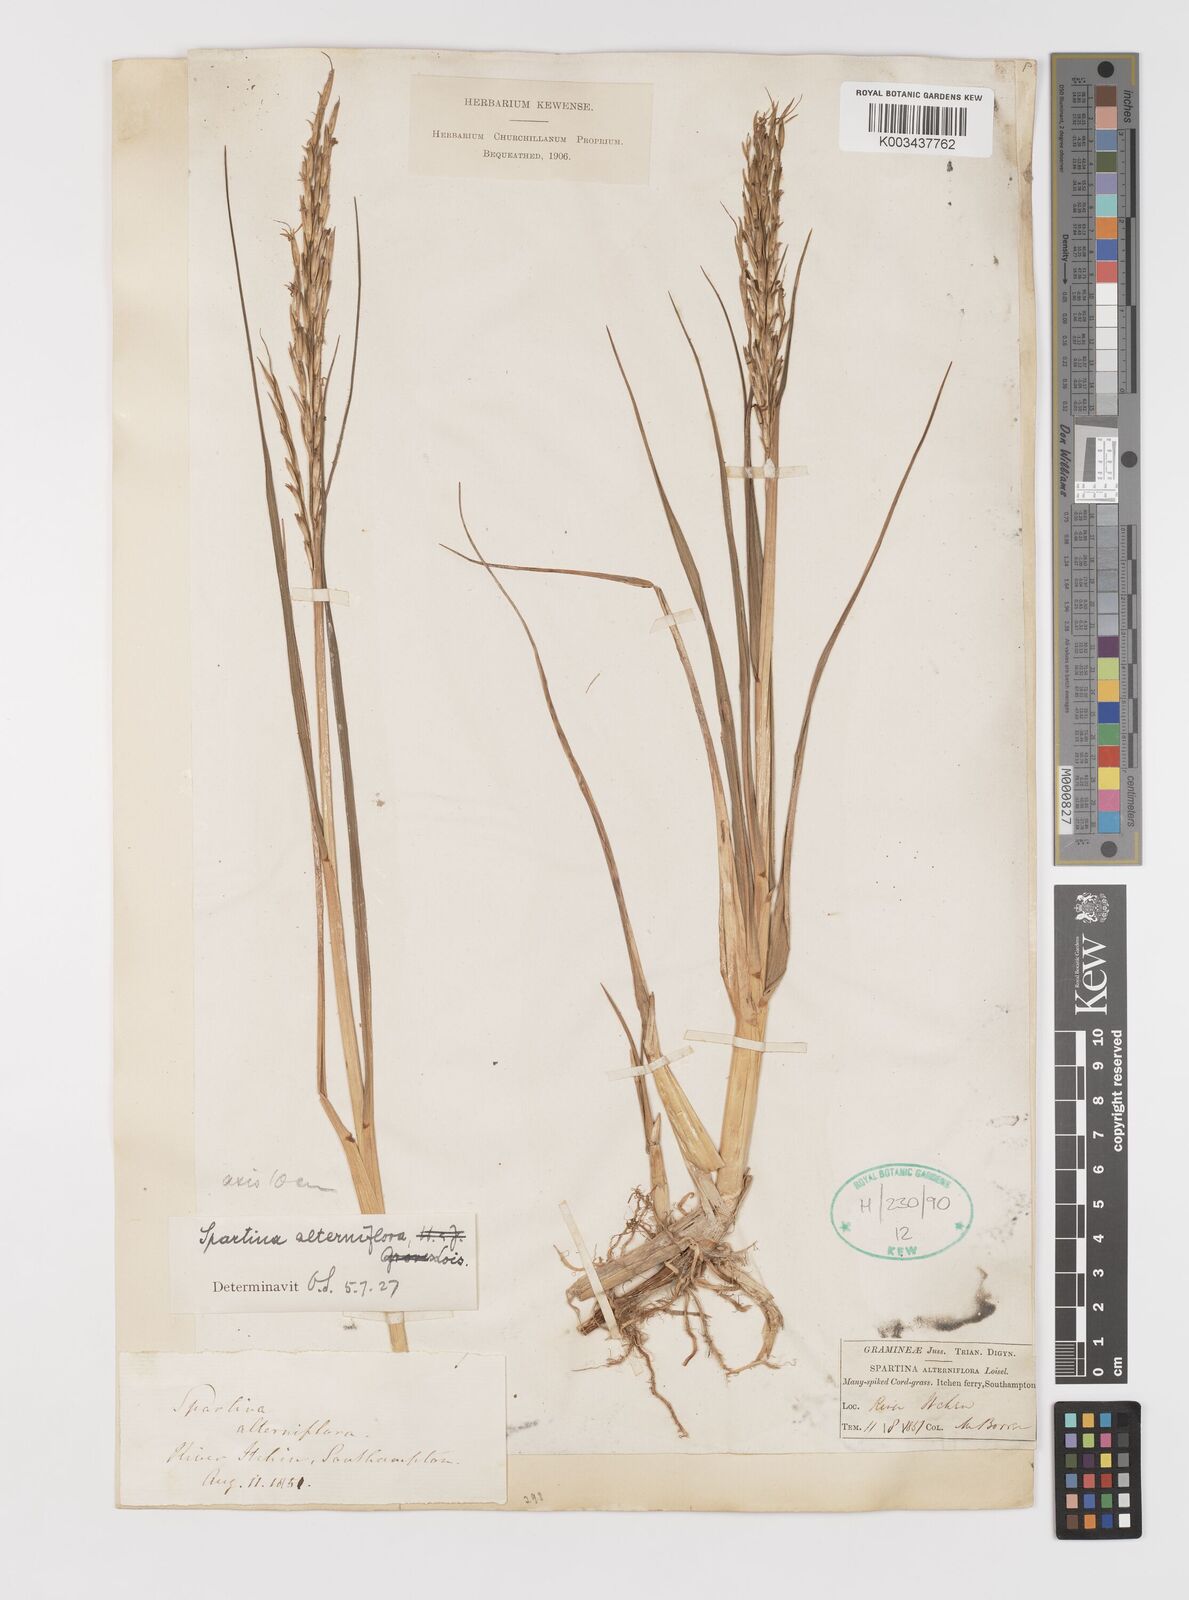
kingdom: Plantae
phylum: Tracheophyta
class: Liliopsida
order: Poales
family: Poaceae
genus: Sporobolus
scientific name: Sporobolus alterniflorus
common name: Atlantic cordgrass
